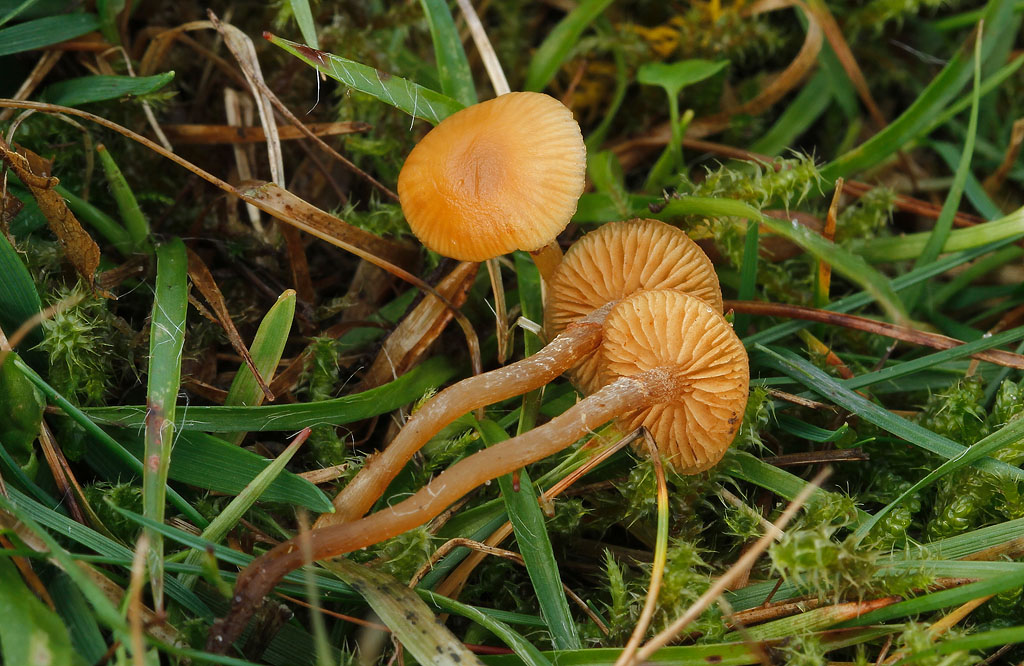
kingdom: Fungi
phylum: Basidiomycota
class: Agaricomycetes
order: Agaricales
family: Hymenogastraceae
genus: Galerina
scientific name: Galerina marginata
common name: randbæltet hjelmhat
